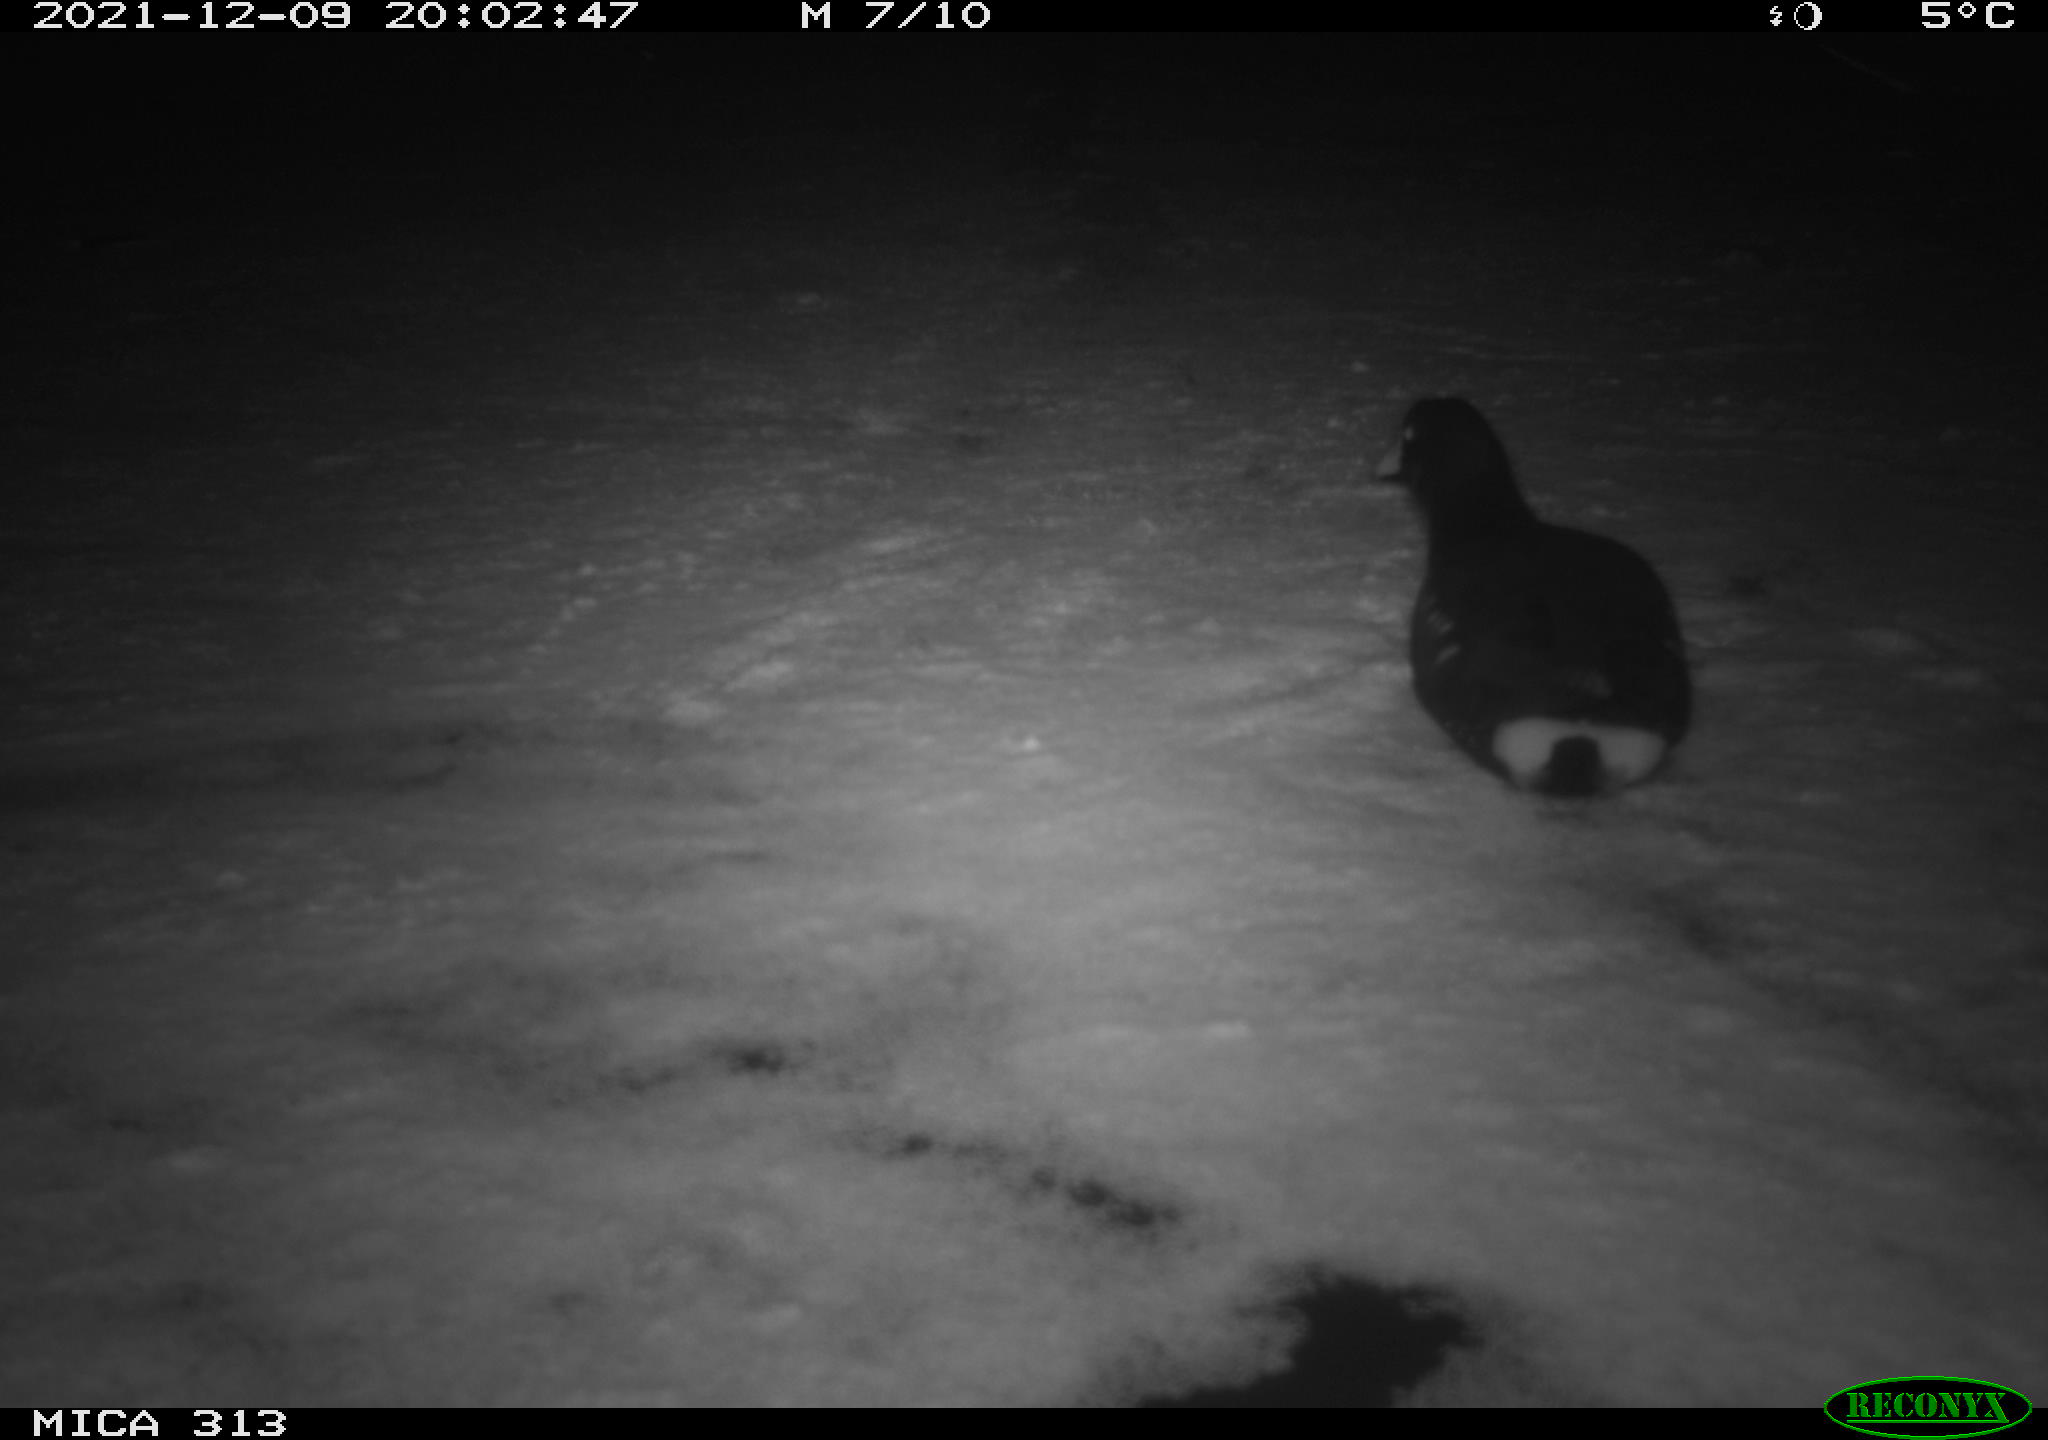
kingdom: Animalia
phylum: Chordata
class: Aves
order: Gruiformes
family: Rallidae
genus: Gallinula
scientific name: Gallinula chloropus
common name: Common moorhen
